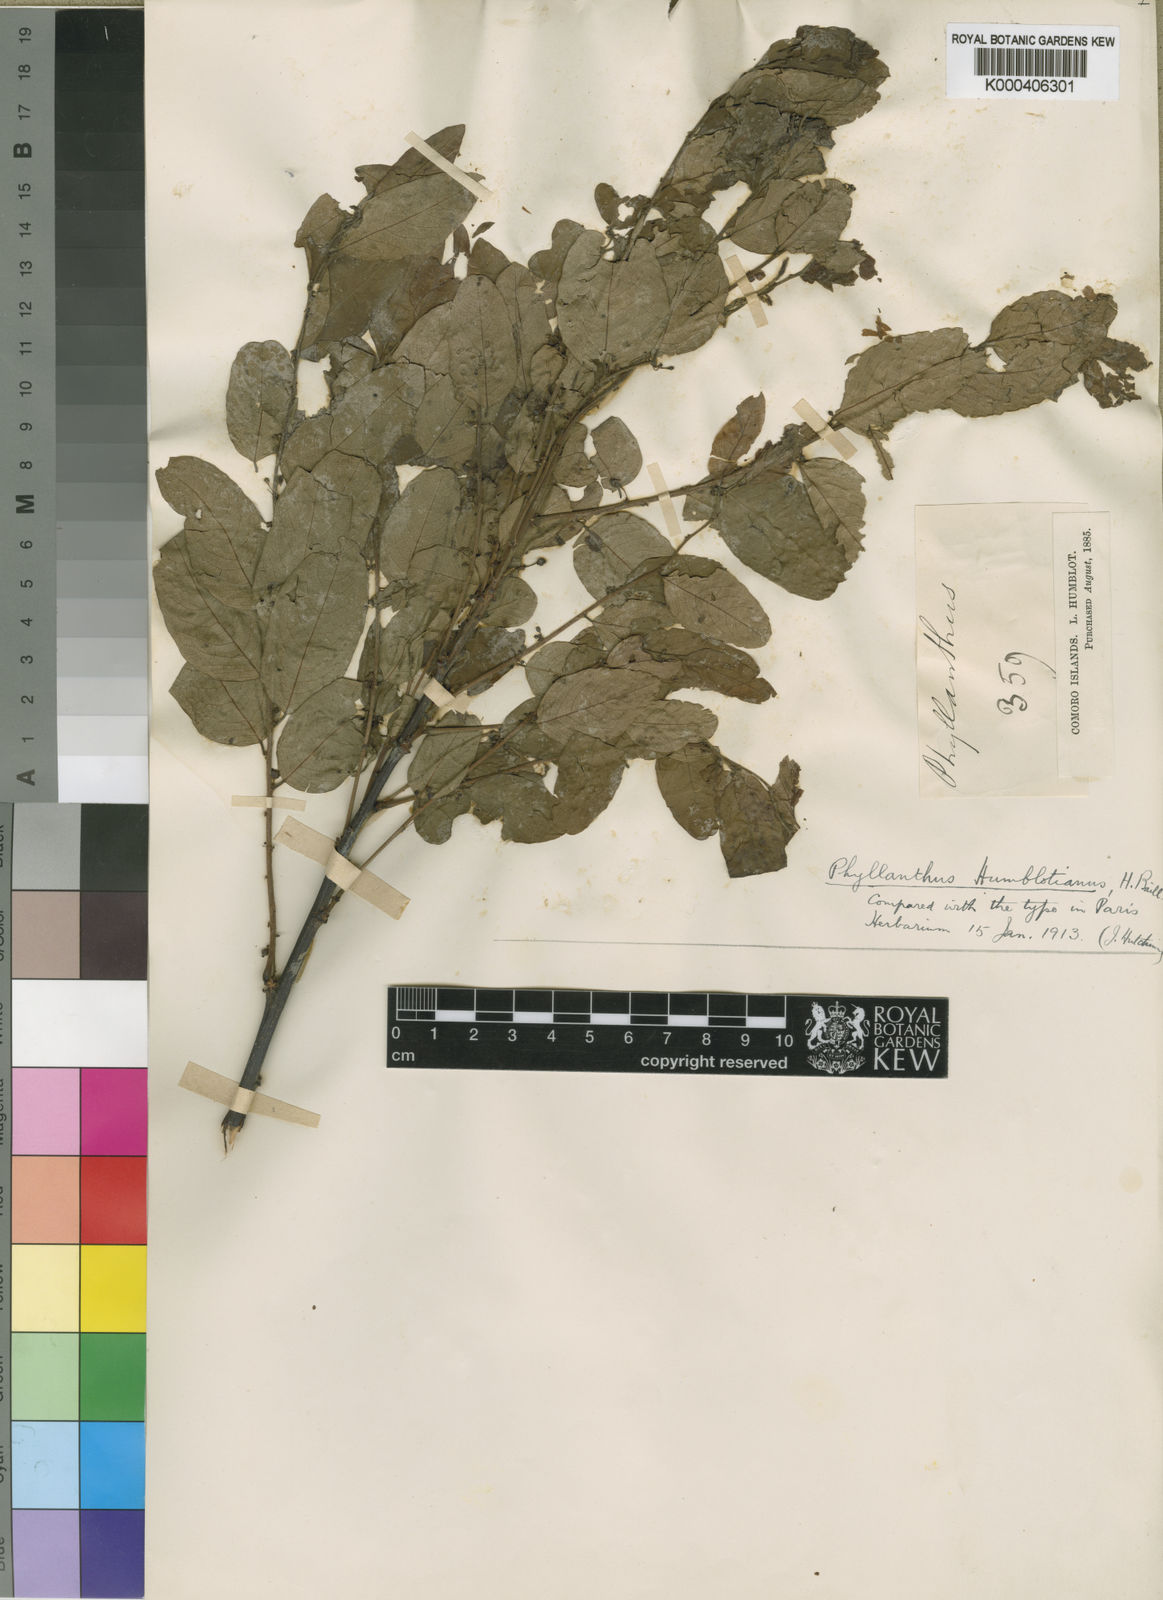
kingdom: Plantae
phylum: Tracheophyta
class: Magnoliopsida
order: Malpighiales
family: Phyllanthaceae
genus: Phyllanthus
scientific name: Phyllanthus
